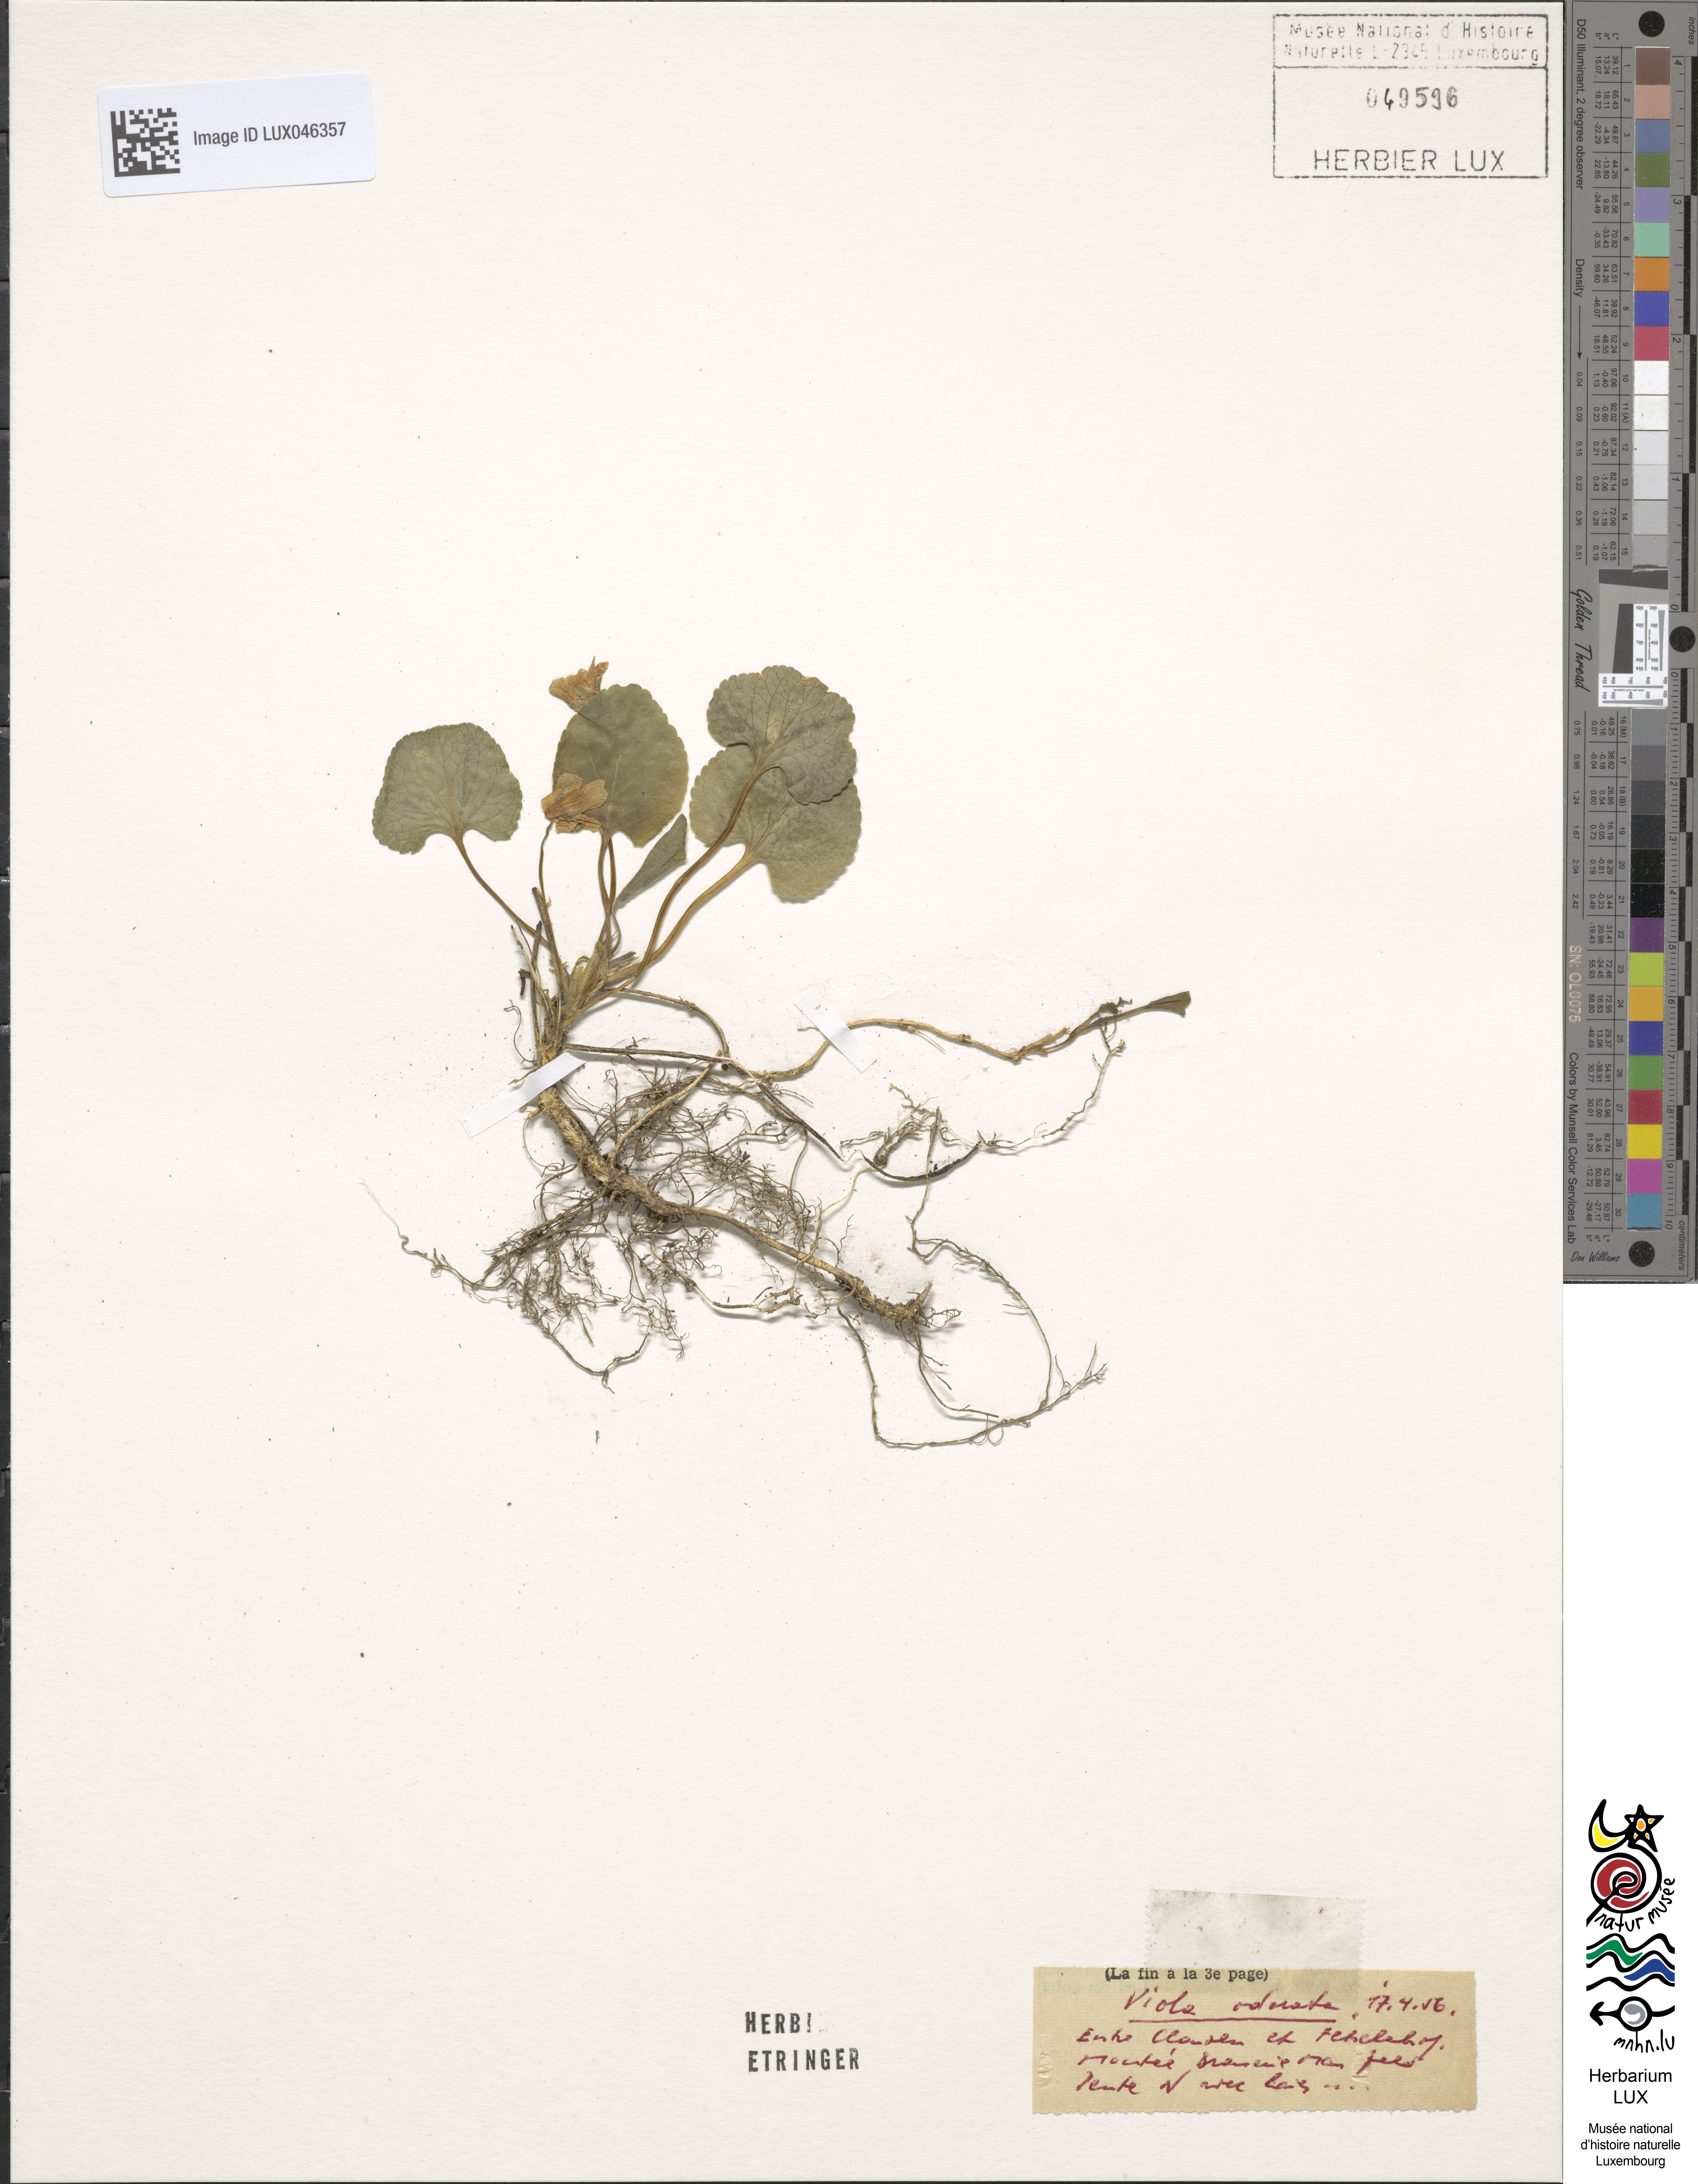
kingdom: Plantae
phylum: Tracheophyta
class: Magnoliopsida
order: Malpighiales
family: Violaceae
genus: Viola
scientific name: Viola odorata
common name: Sweet violet
